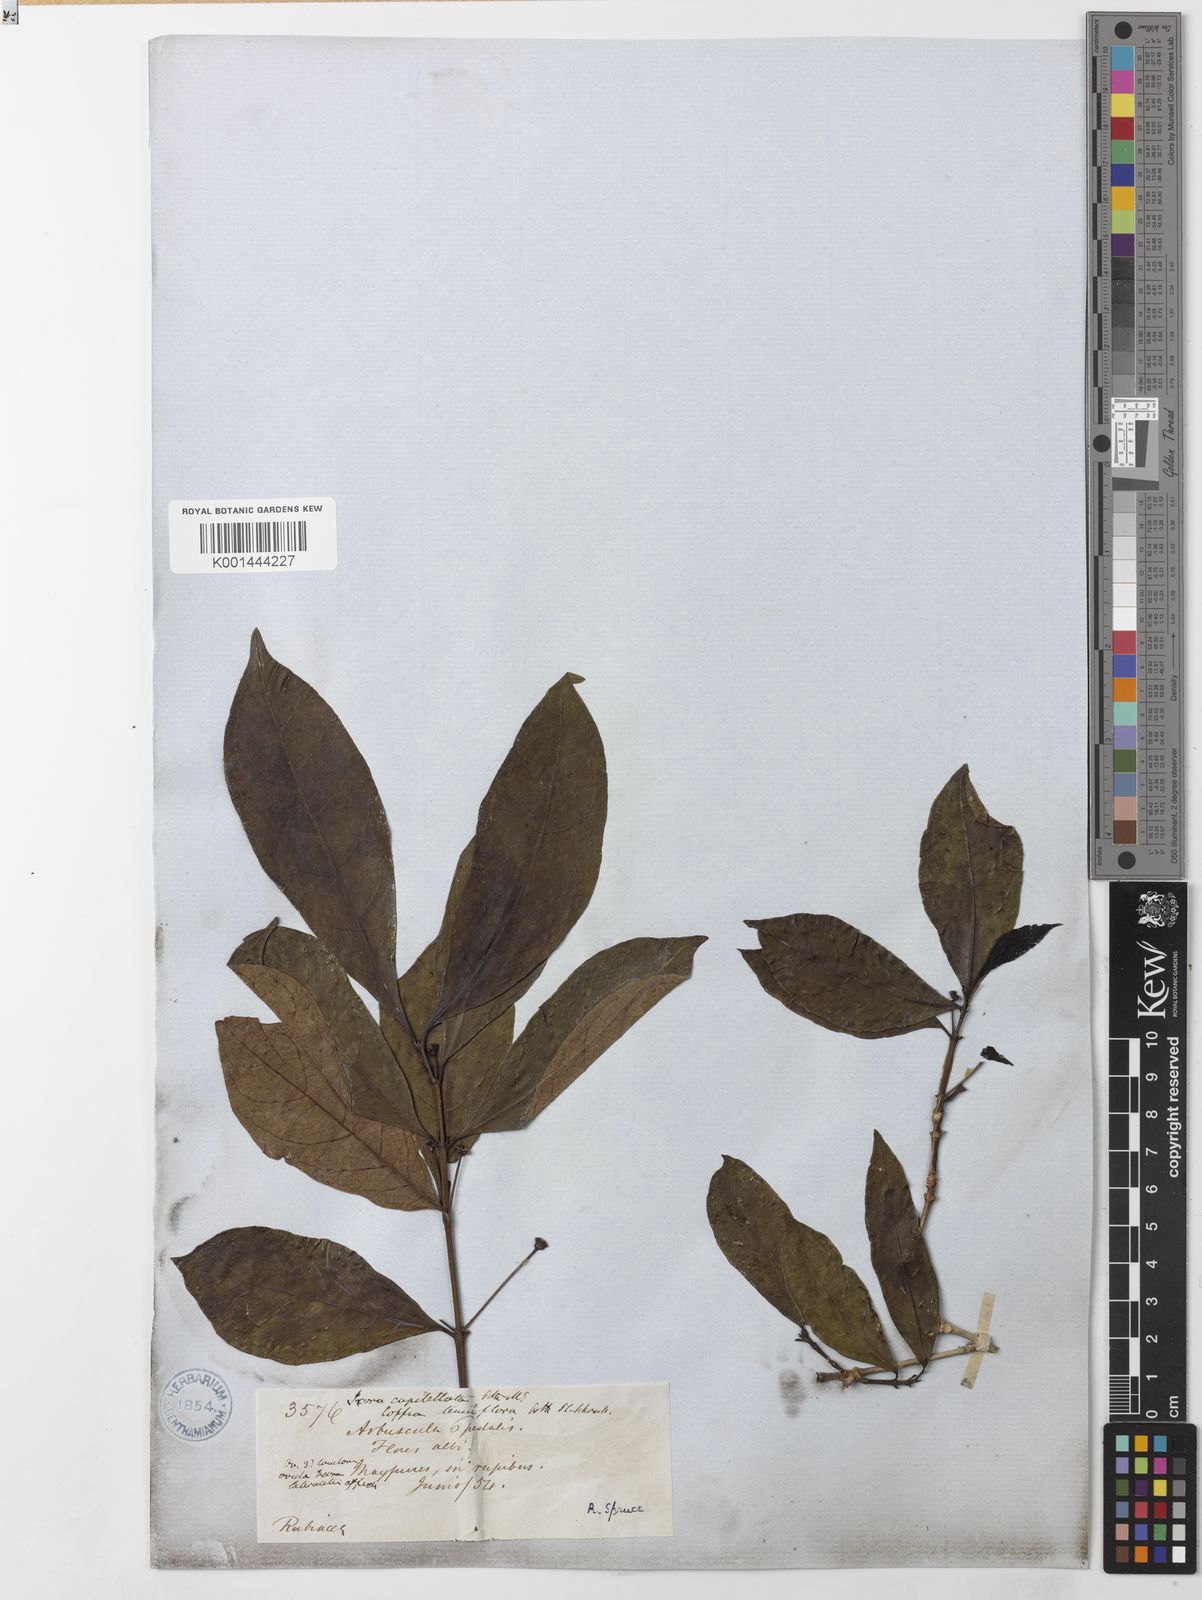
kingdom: Plantae
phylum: Tracheophyta
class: Magnoliopsida
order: Gentianales
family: Rubiaceae
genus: Appunia
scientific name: Appunia
